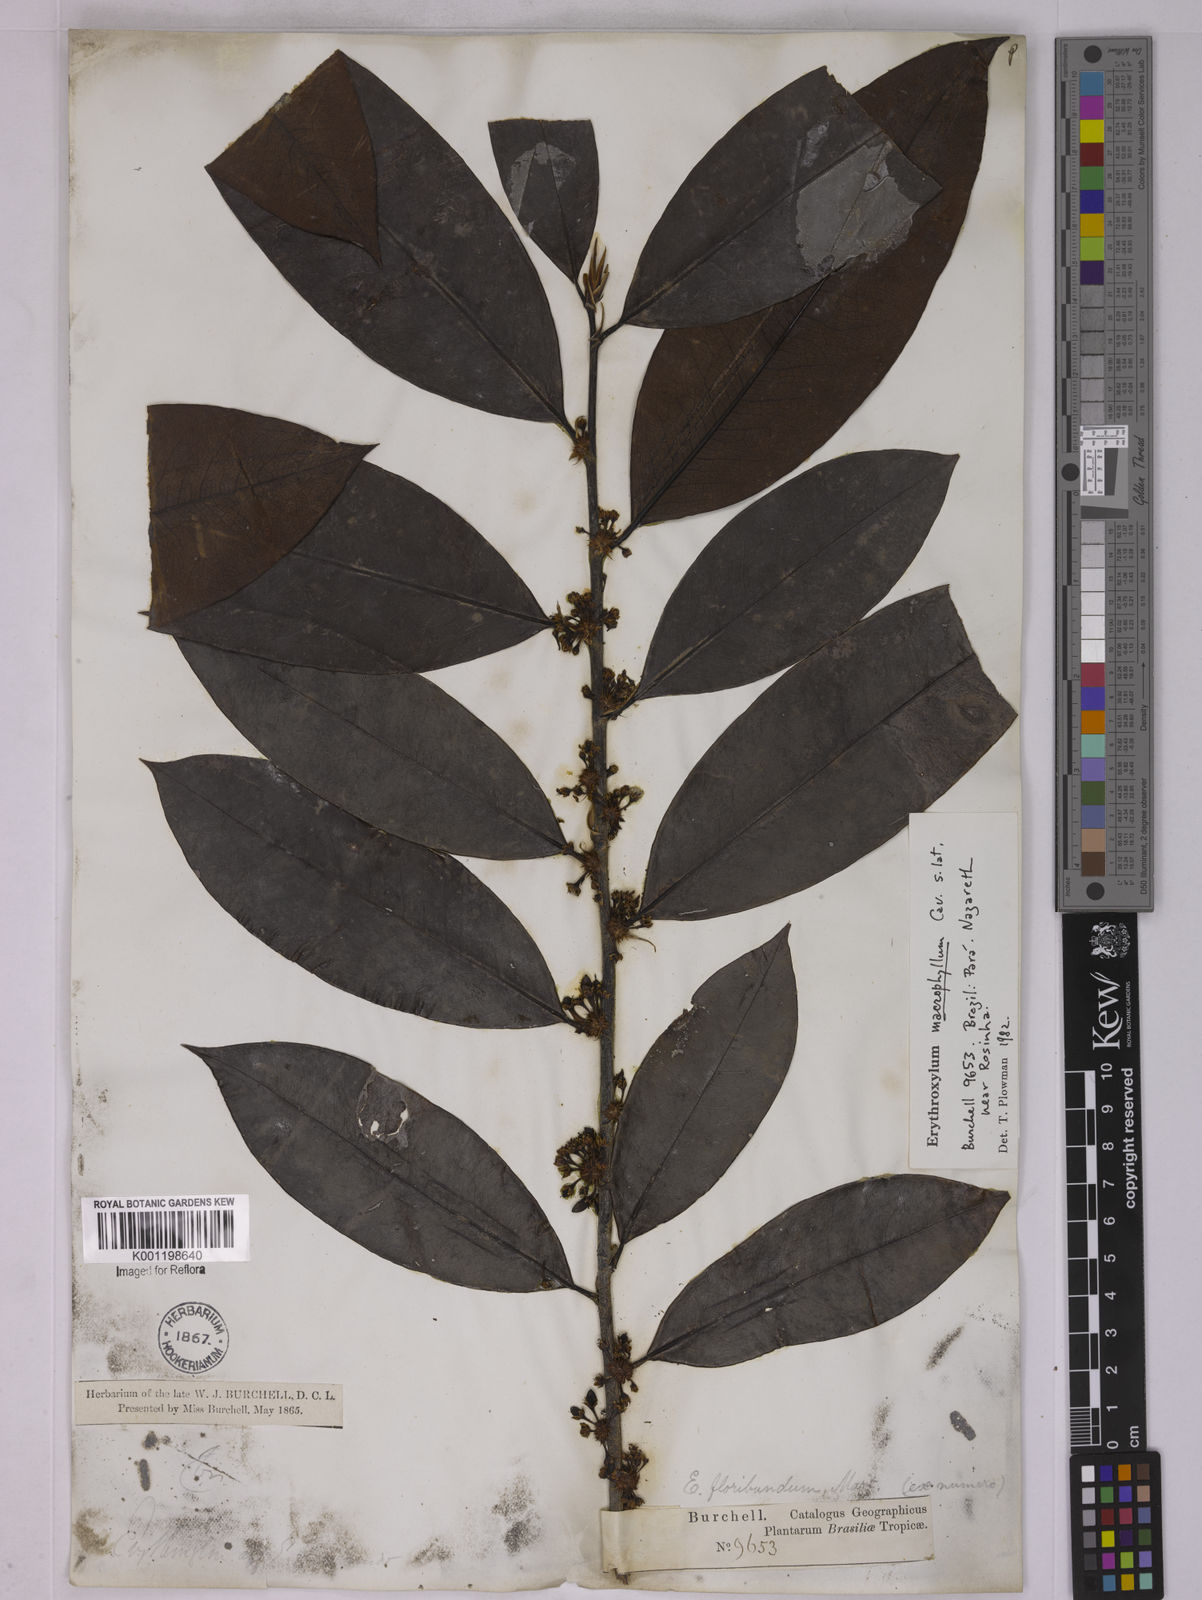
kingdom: Plantae
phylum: Tracheophyta
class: Magnoliopsida
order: Malpighiales
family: Erythroxylaceae
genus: Erythroxylum
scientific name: Erythroxylum macrophyllum
